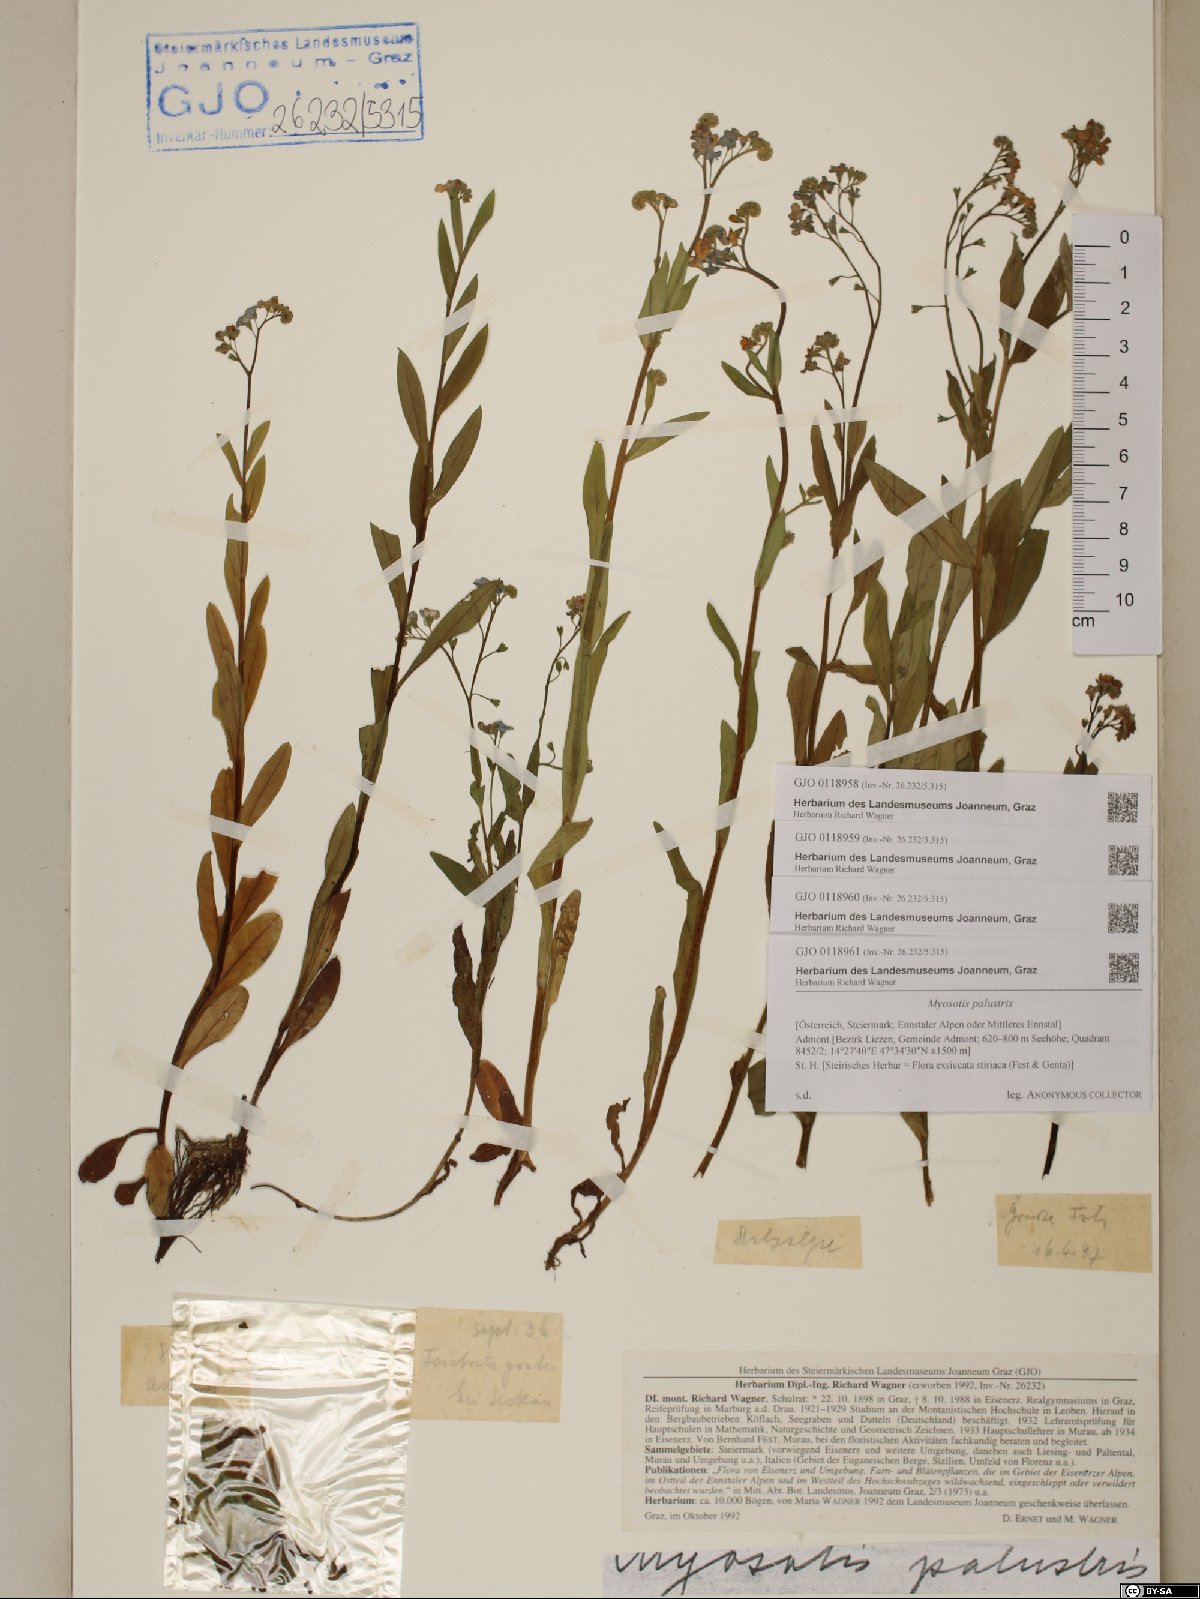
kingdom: Plantae
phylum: Tracheophyta
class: Magnoliopsida
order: Boraginales
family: Boraginaceae
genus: Myosotis
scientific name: Myosotis scorpioides
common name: Water forget-me-not
